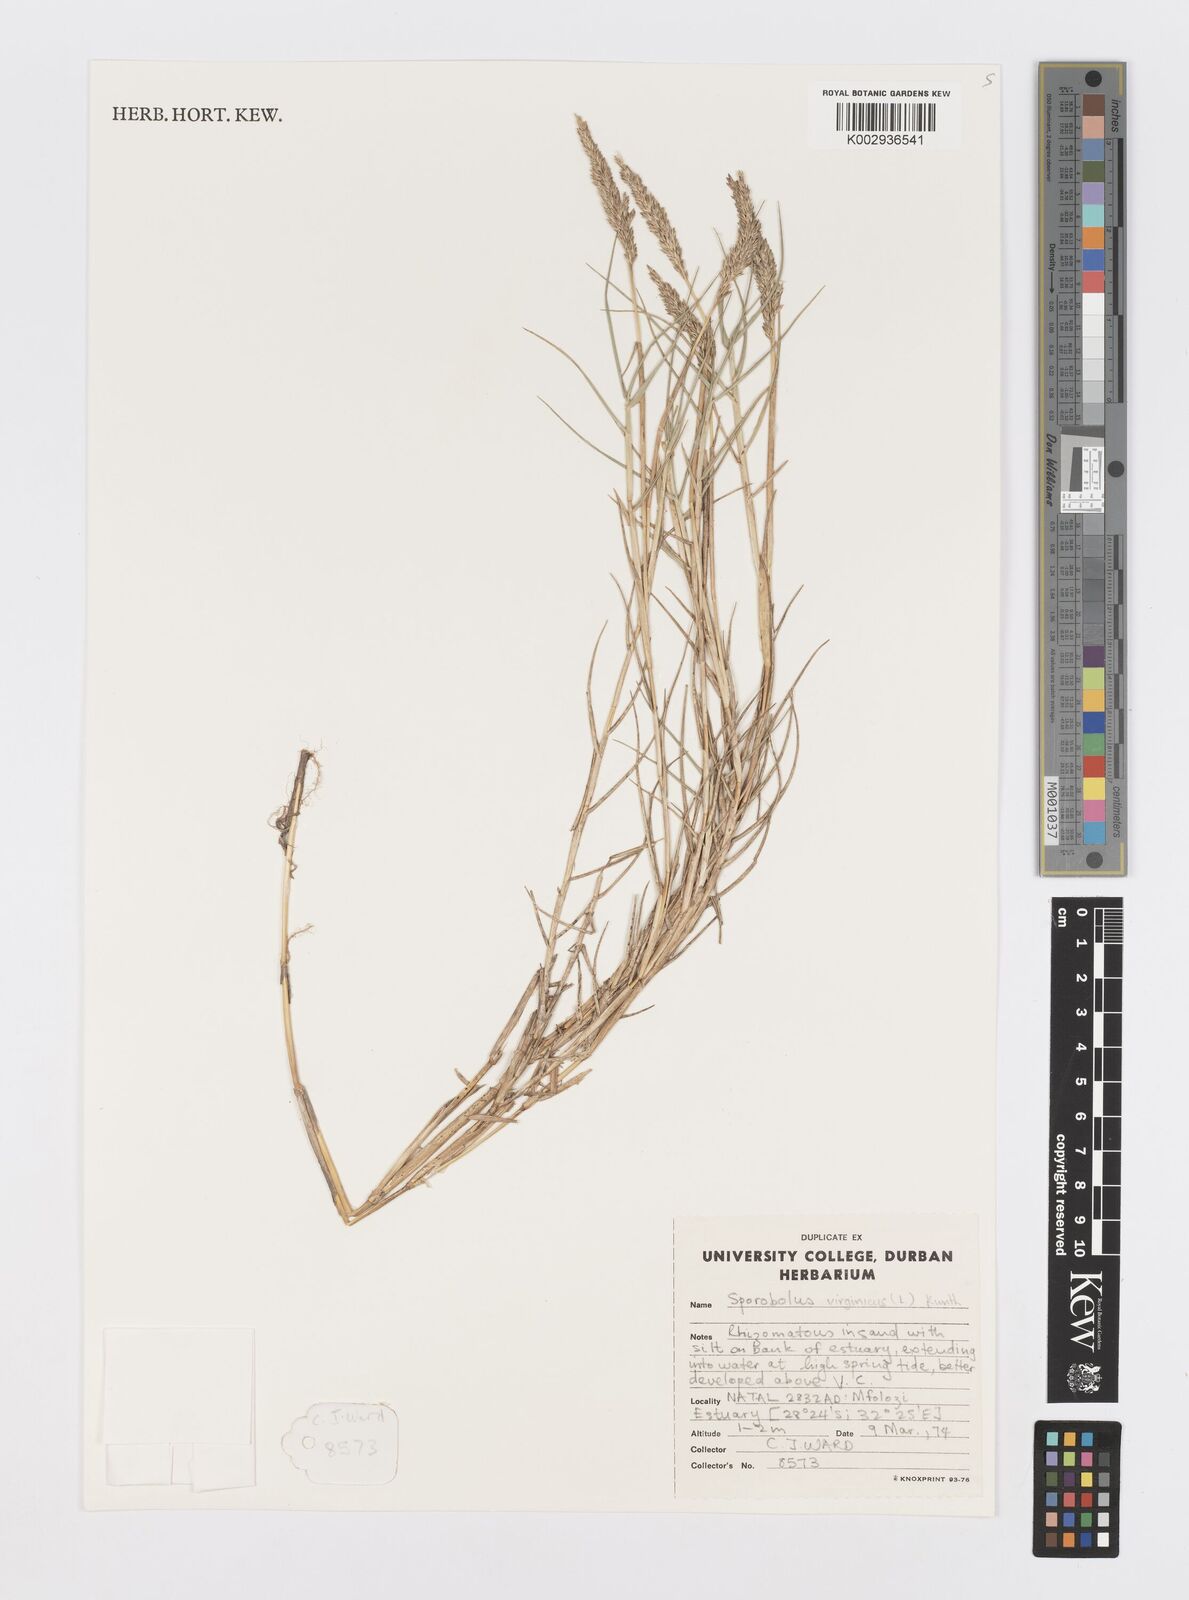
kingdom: Plantae
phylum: Tracheophyta
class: Liliopsida
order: Poales
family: Poaceae
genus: Sporobolus
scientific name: Sporobolus virginicus
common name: Beach dropseed
